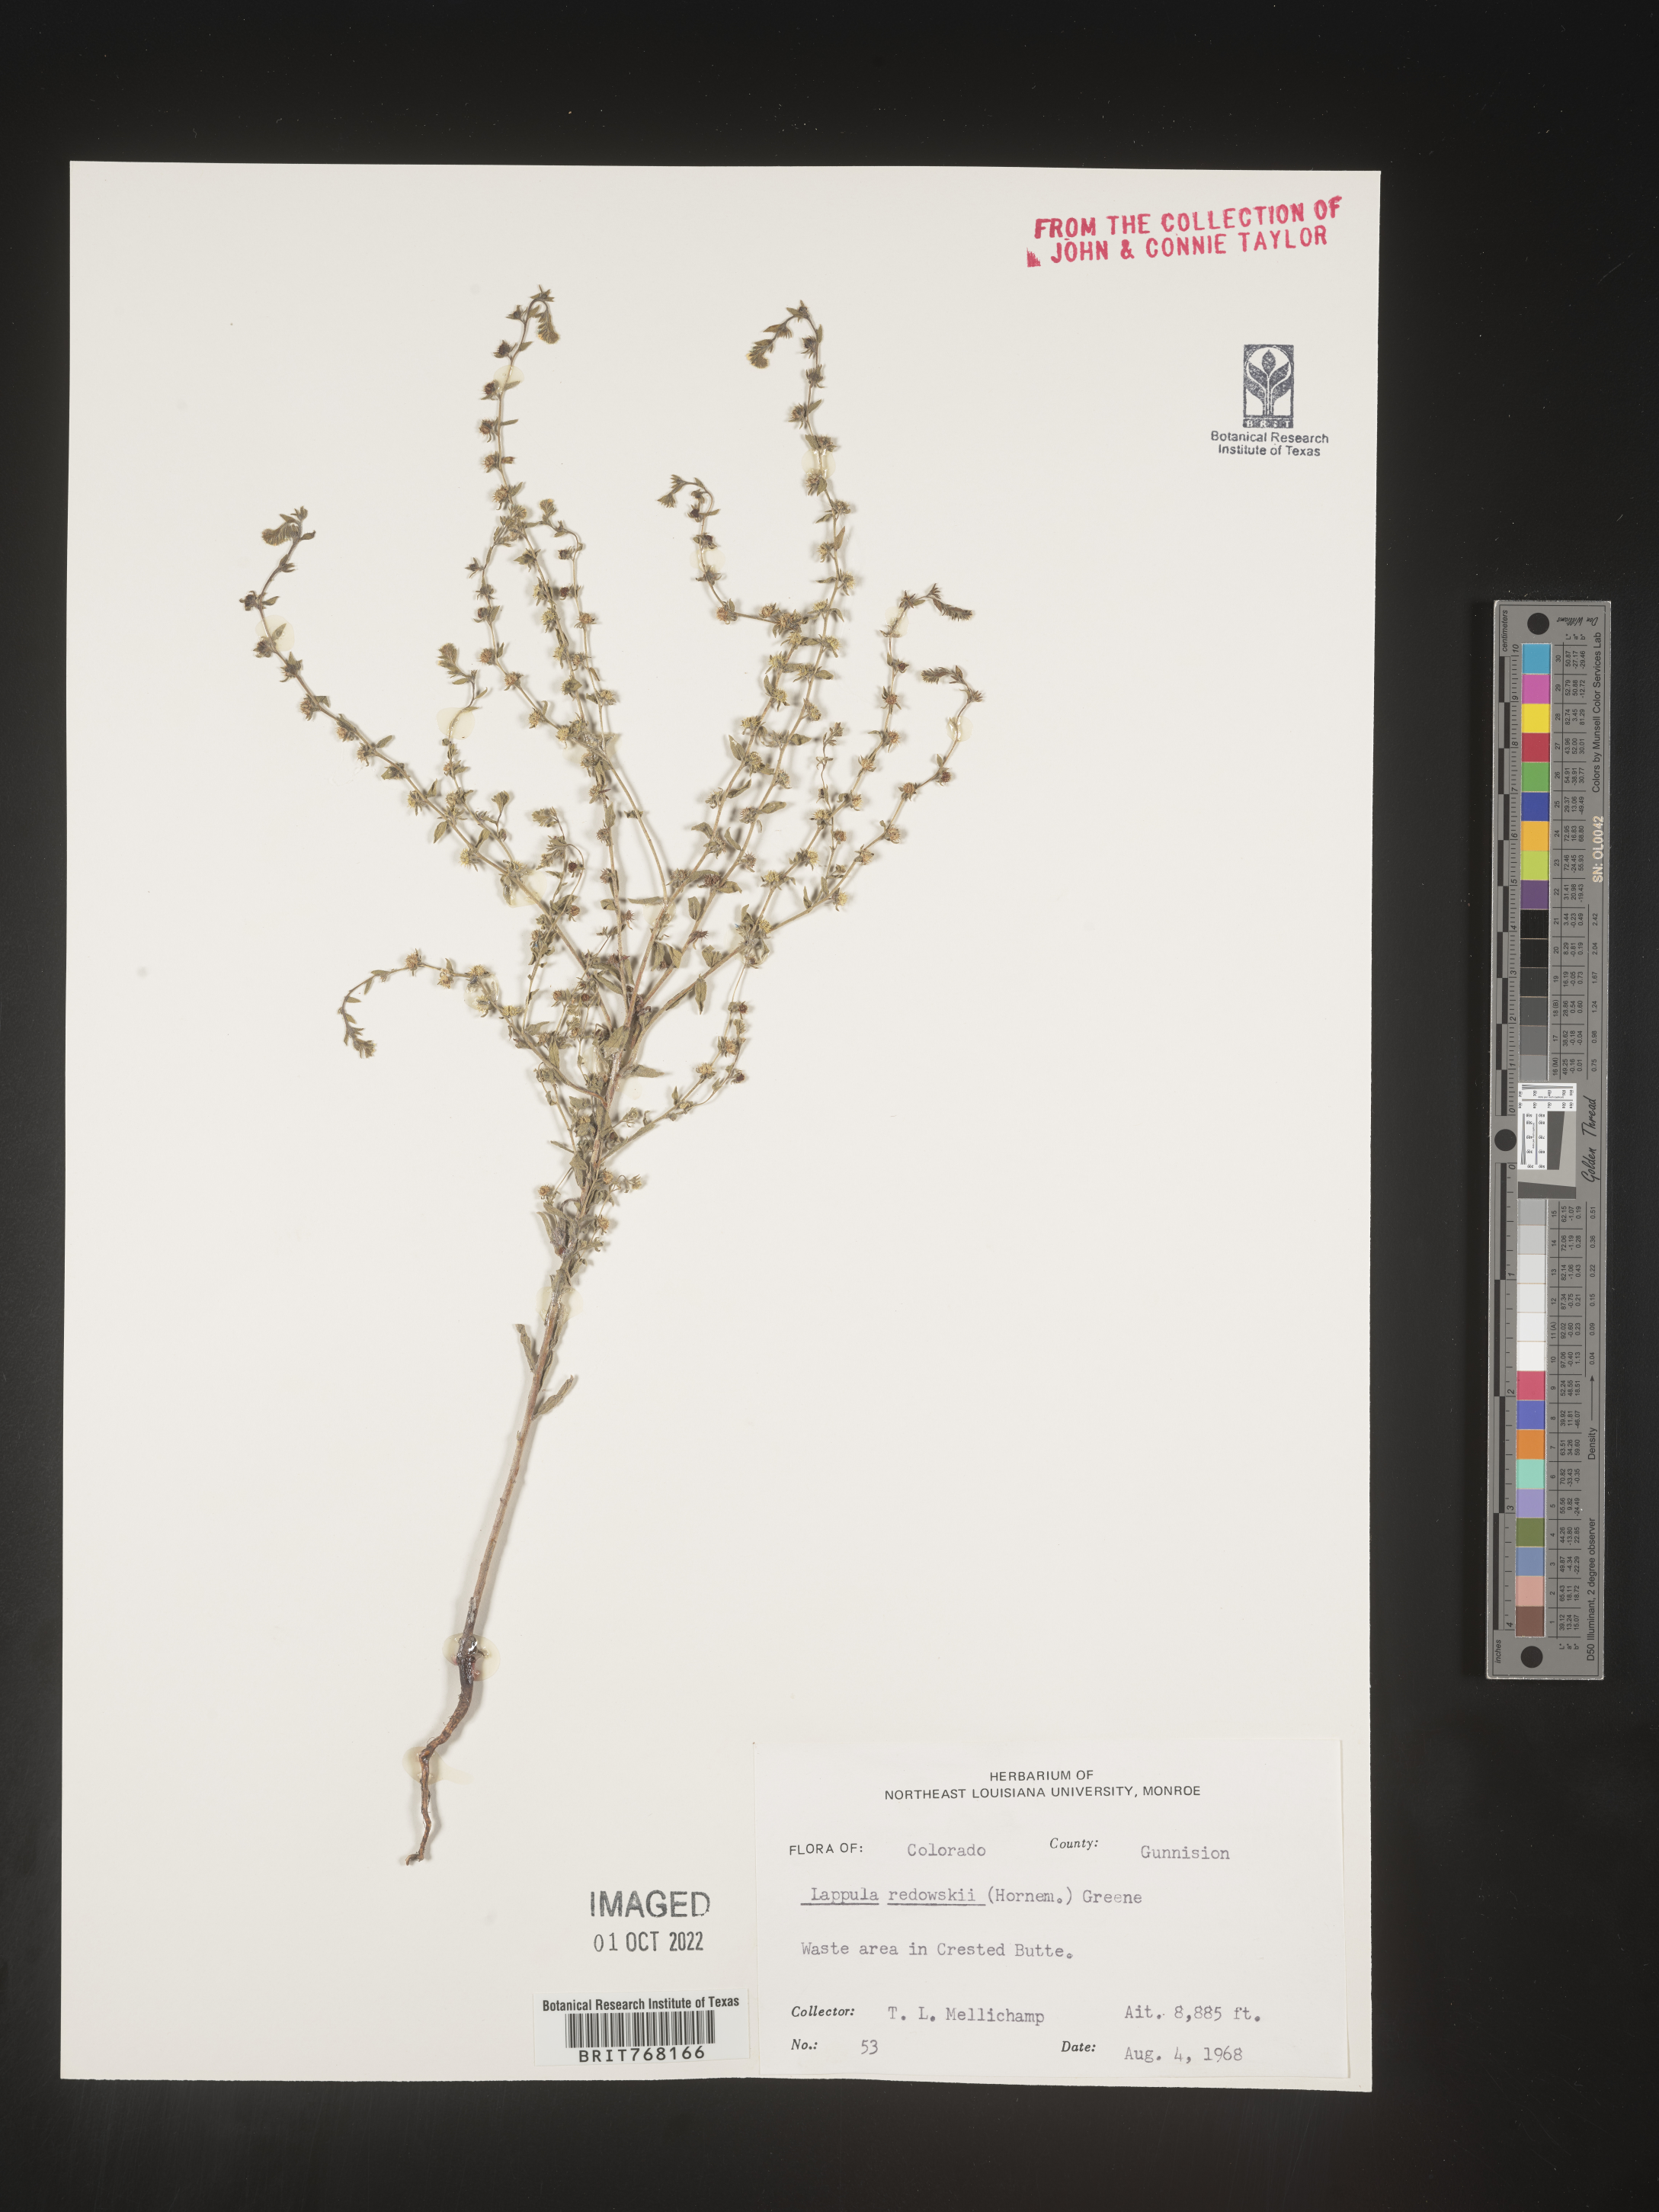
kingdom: Plantae
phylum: Tracheophyta
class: Magnoliopsida
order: Boraginales
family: Boraginaceae
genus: Lappula
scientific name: Lappula redowskii
